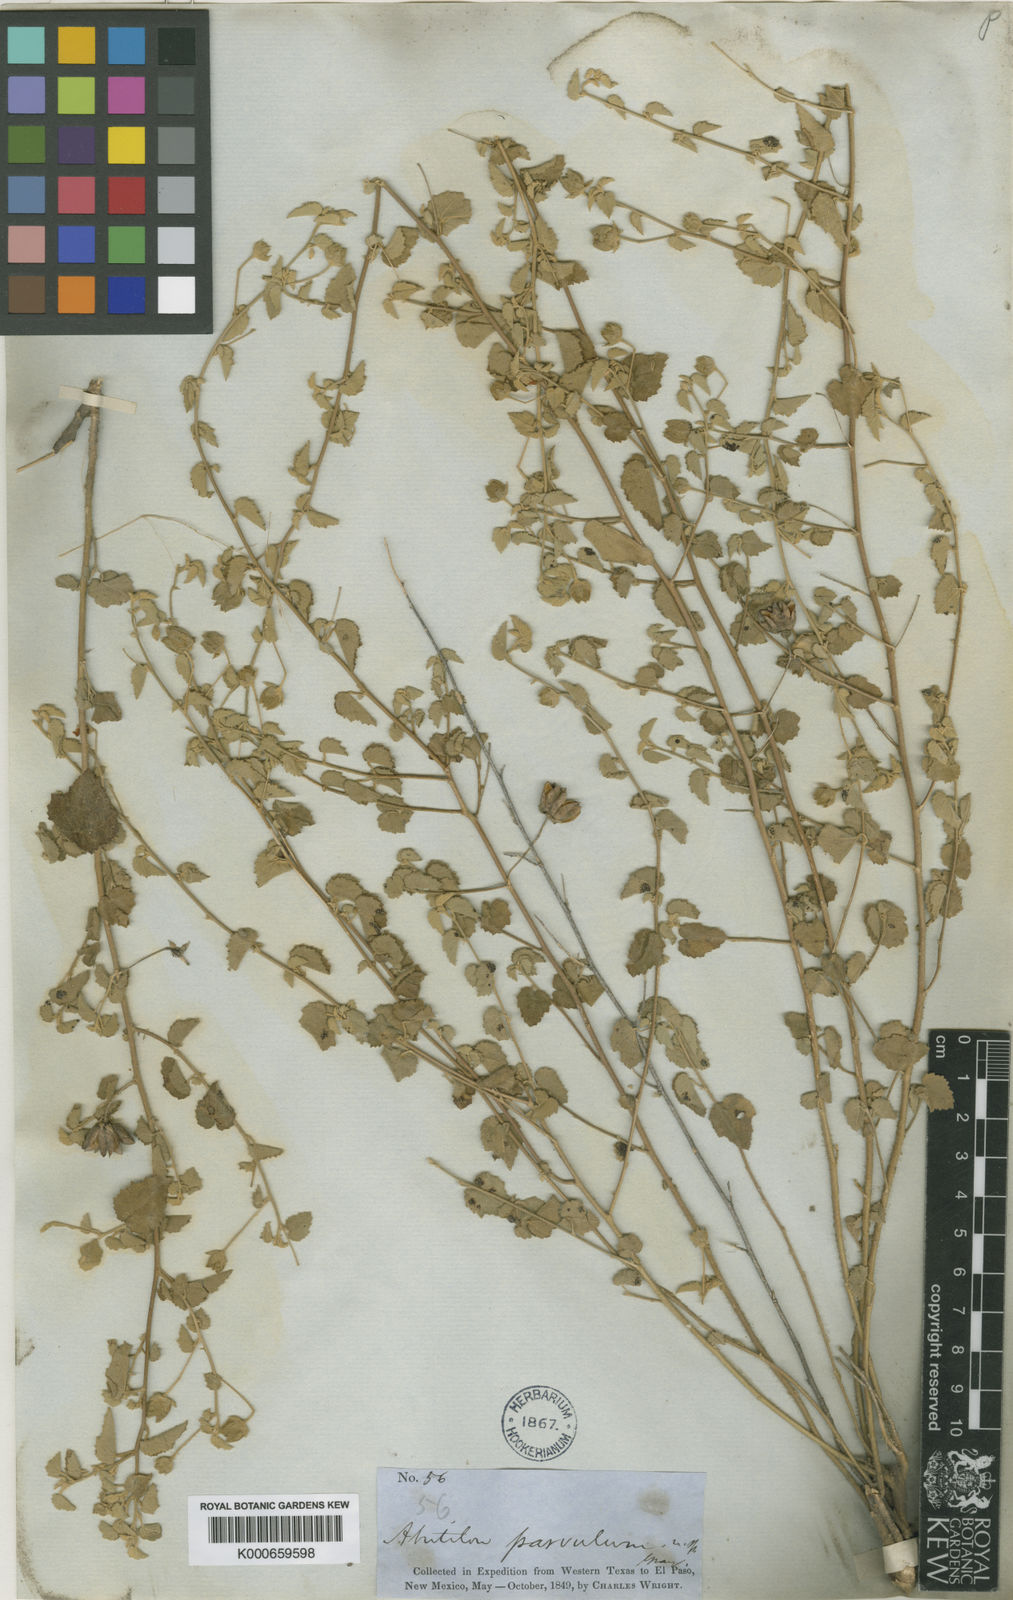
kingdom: Plantae
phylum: Tracheophyta
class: Magnoliopsida
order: Malvales
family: Malvaceae
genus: Abutilon
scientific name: Abutilon parvulum
